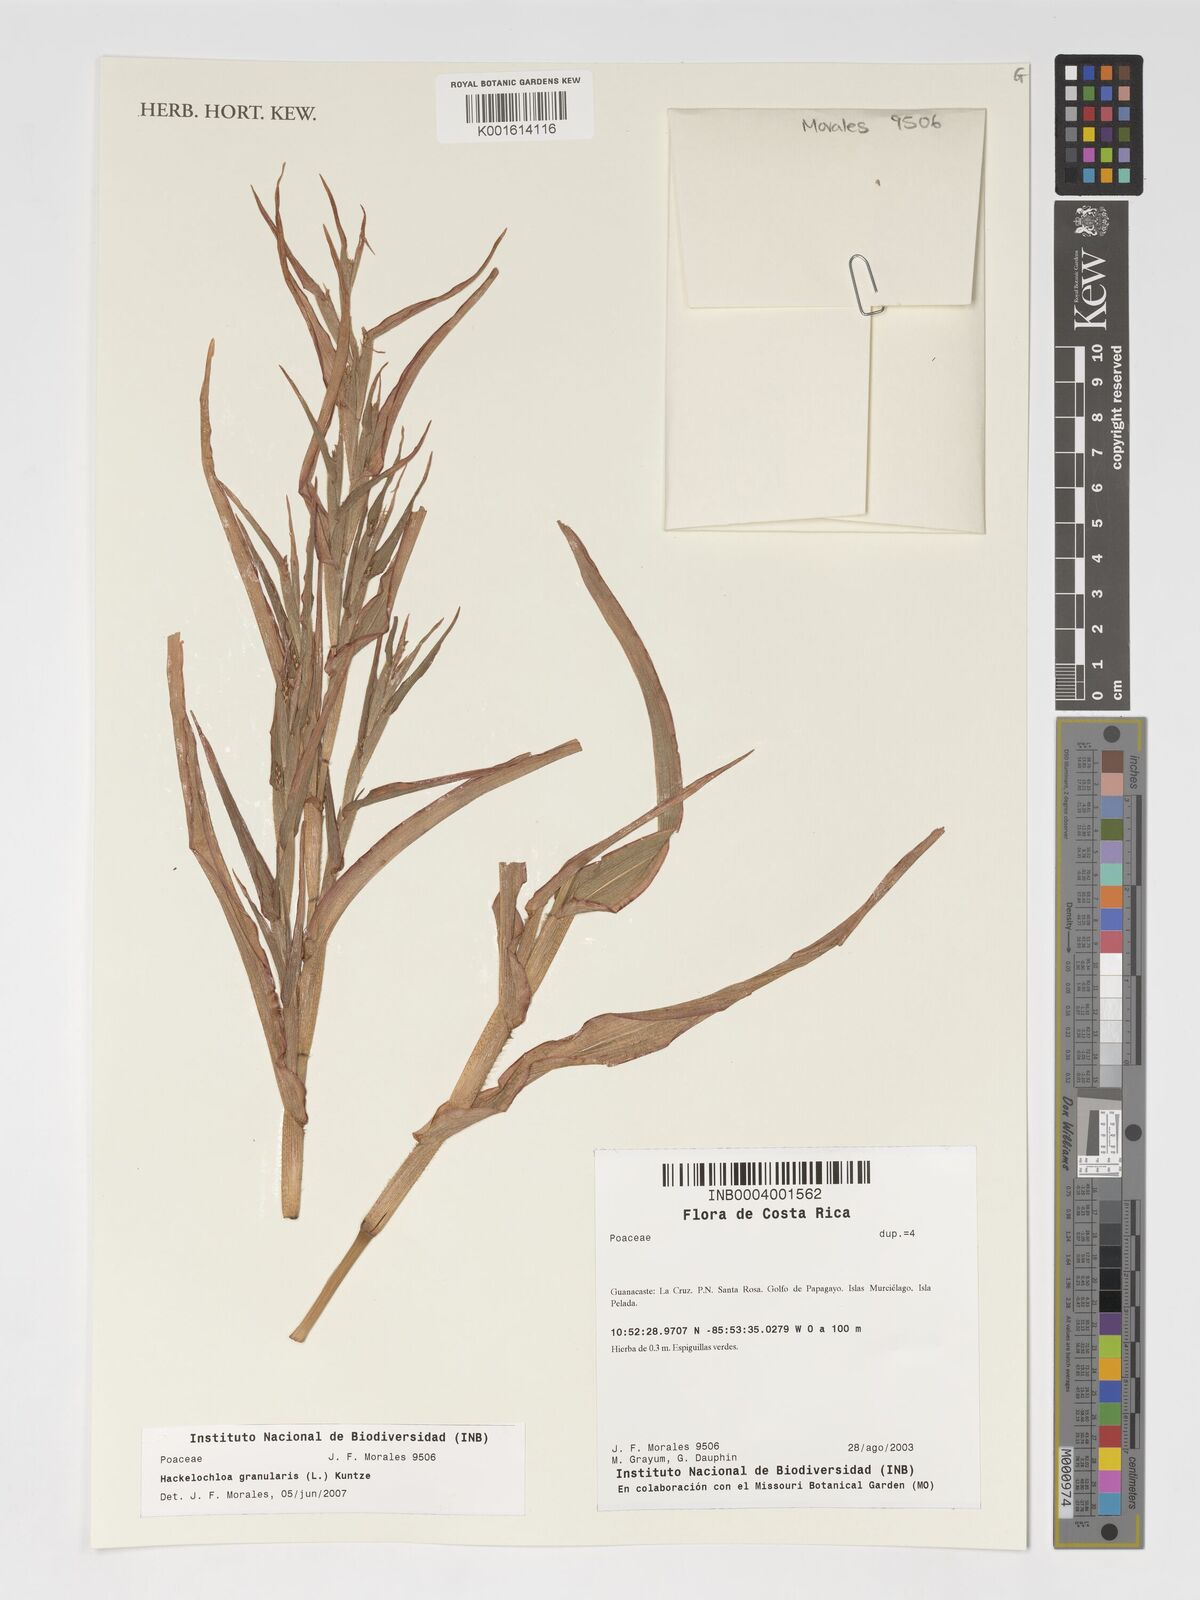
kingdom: Plantae
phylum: Tracheophyta
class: Liliopsida
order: Poales
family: Poaceae
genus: Hackelochloa
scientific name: Hackelochloa granularis
